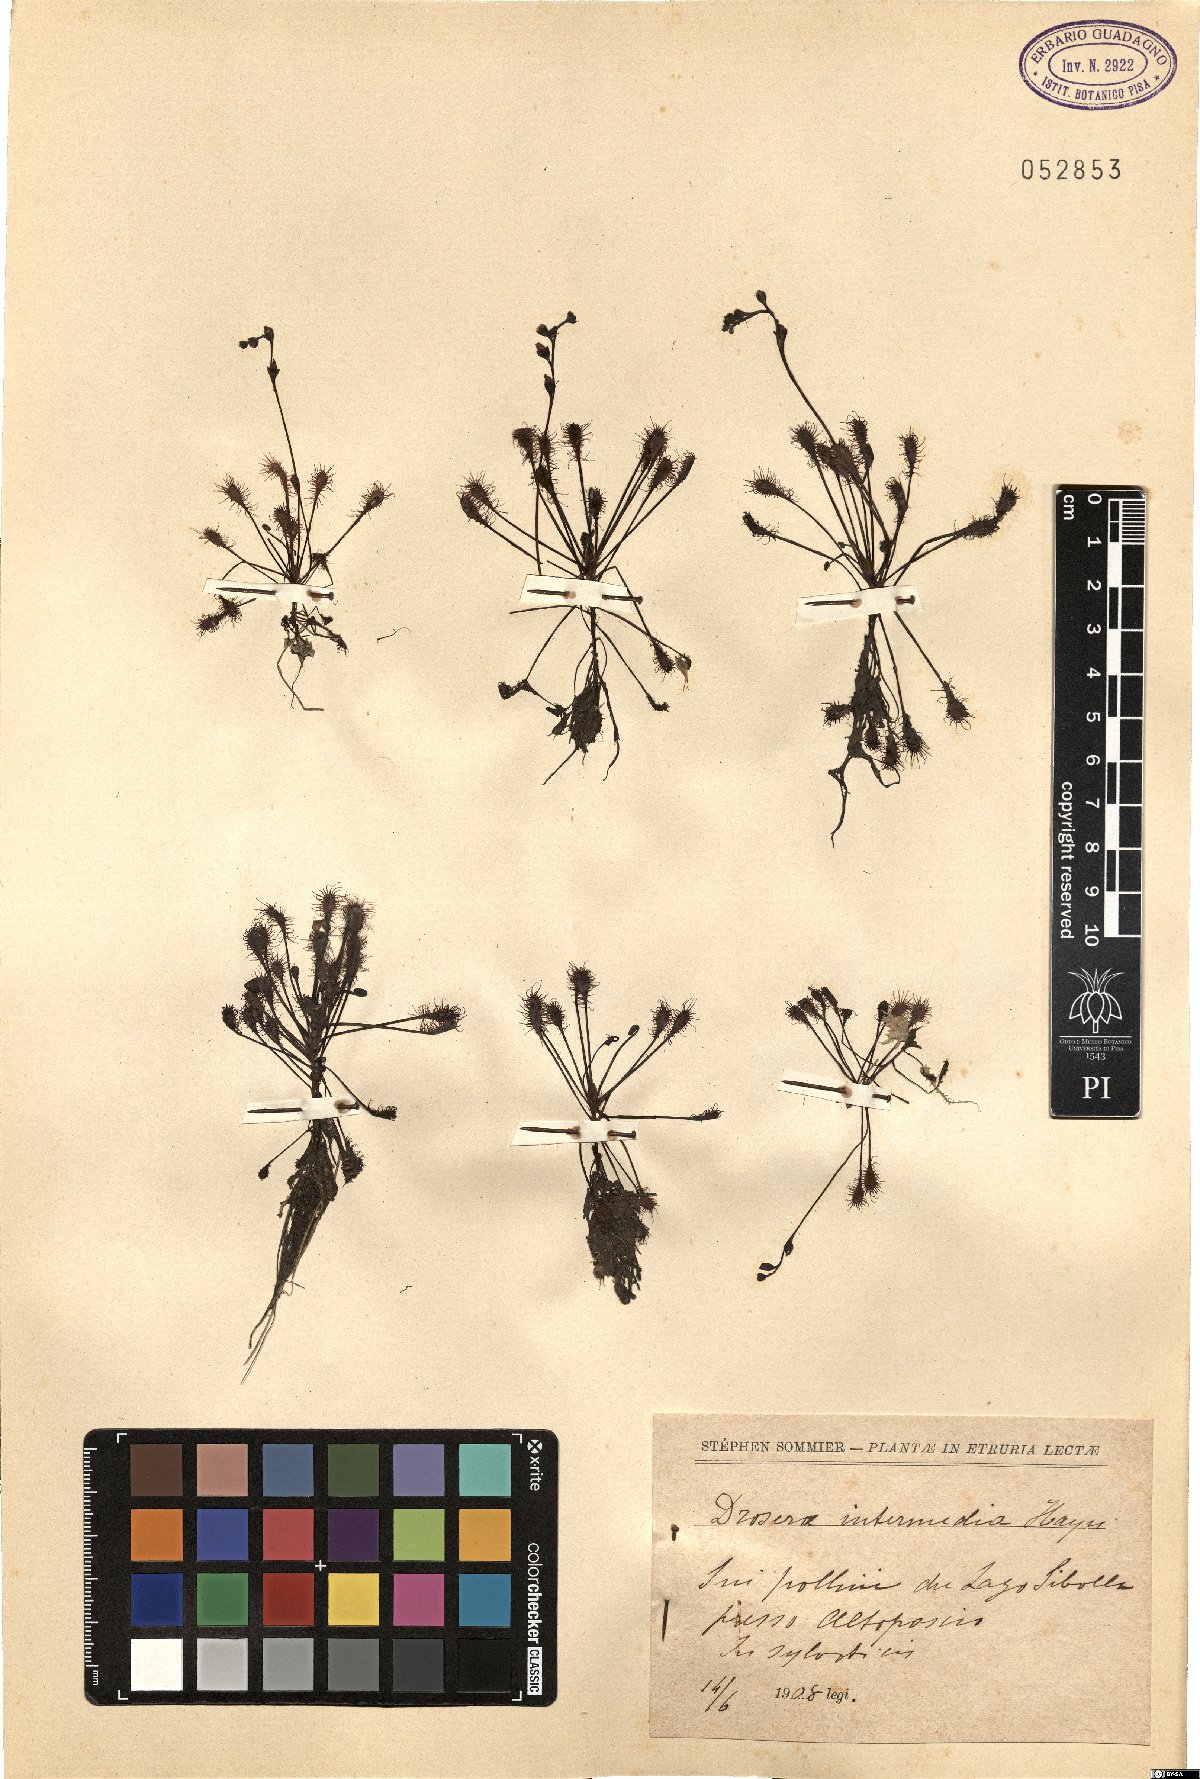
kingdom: Plantae
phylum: Tracheophyta
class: Magnoliopsida
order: Caryophyllales
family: Droseraceae
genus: Drosera
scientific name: Drosera intermedia
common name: Oblong-leaved sundew
